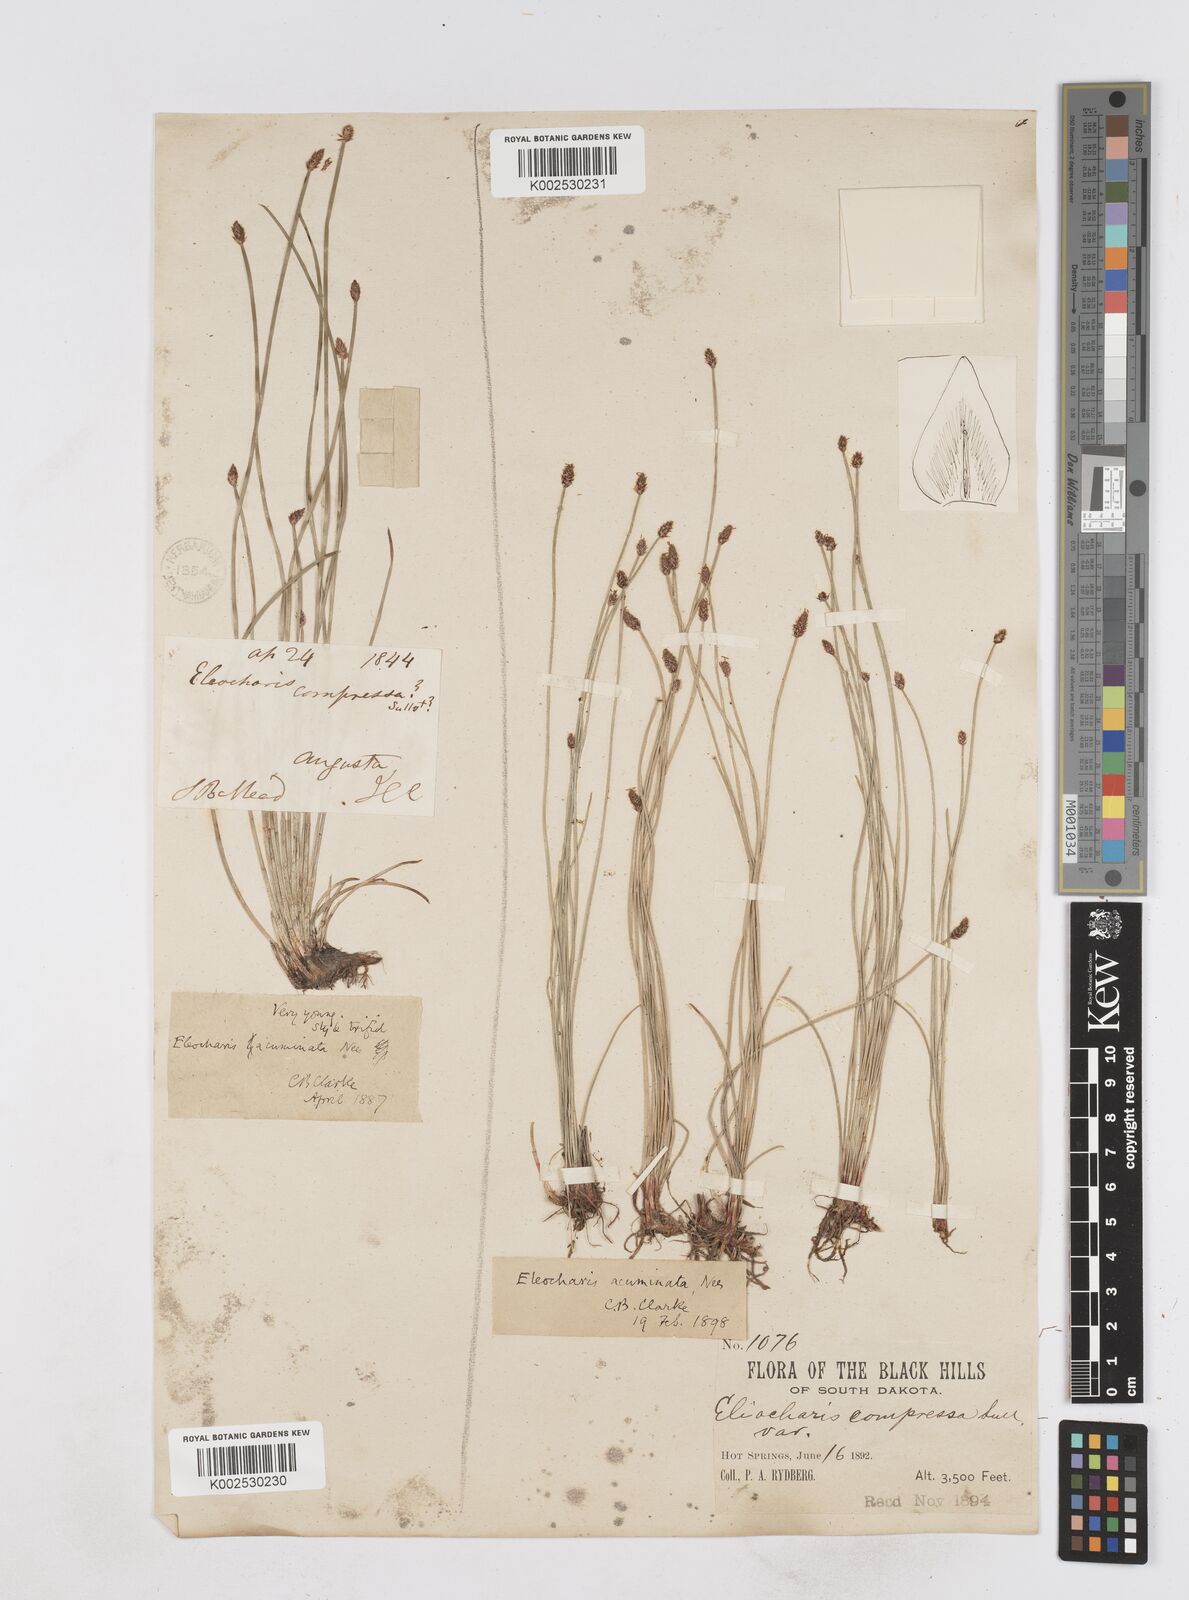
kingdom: Plantae
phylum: Tracheophyta
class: Liliopsida
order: Poales
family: Cyperaceae
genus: Eleocharis
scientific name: Eleocharis compressa
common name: Flat-stem spike-rush
